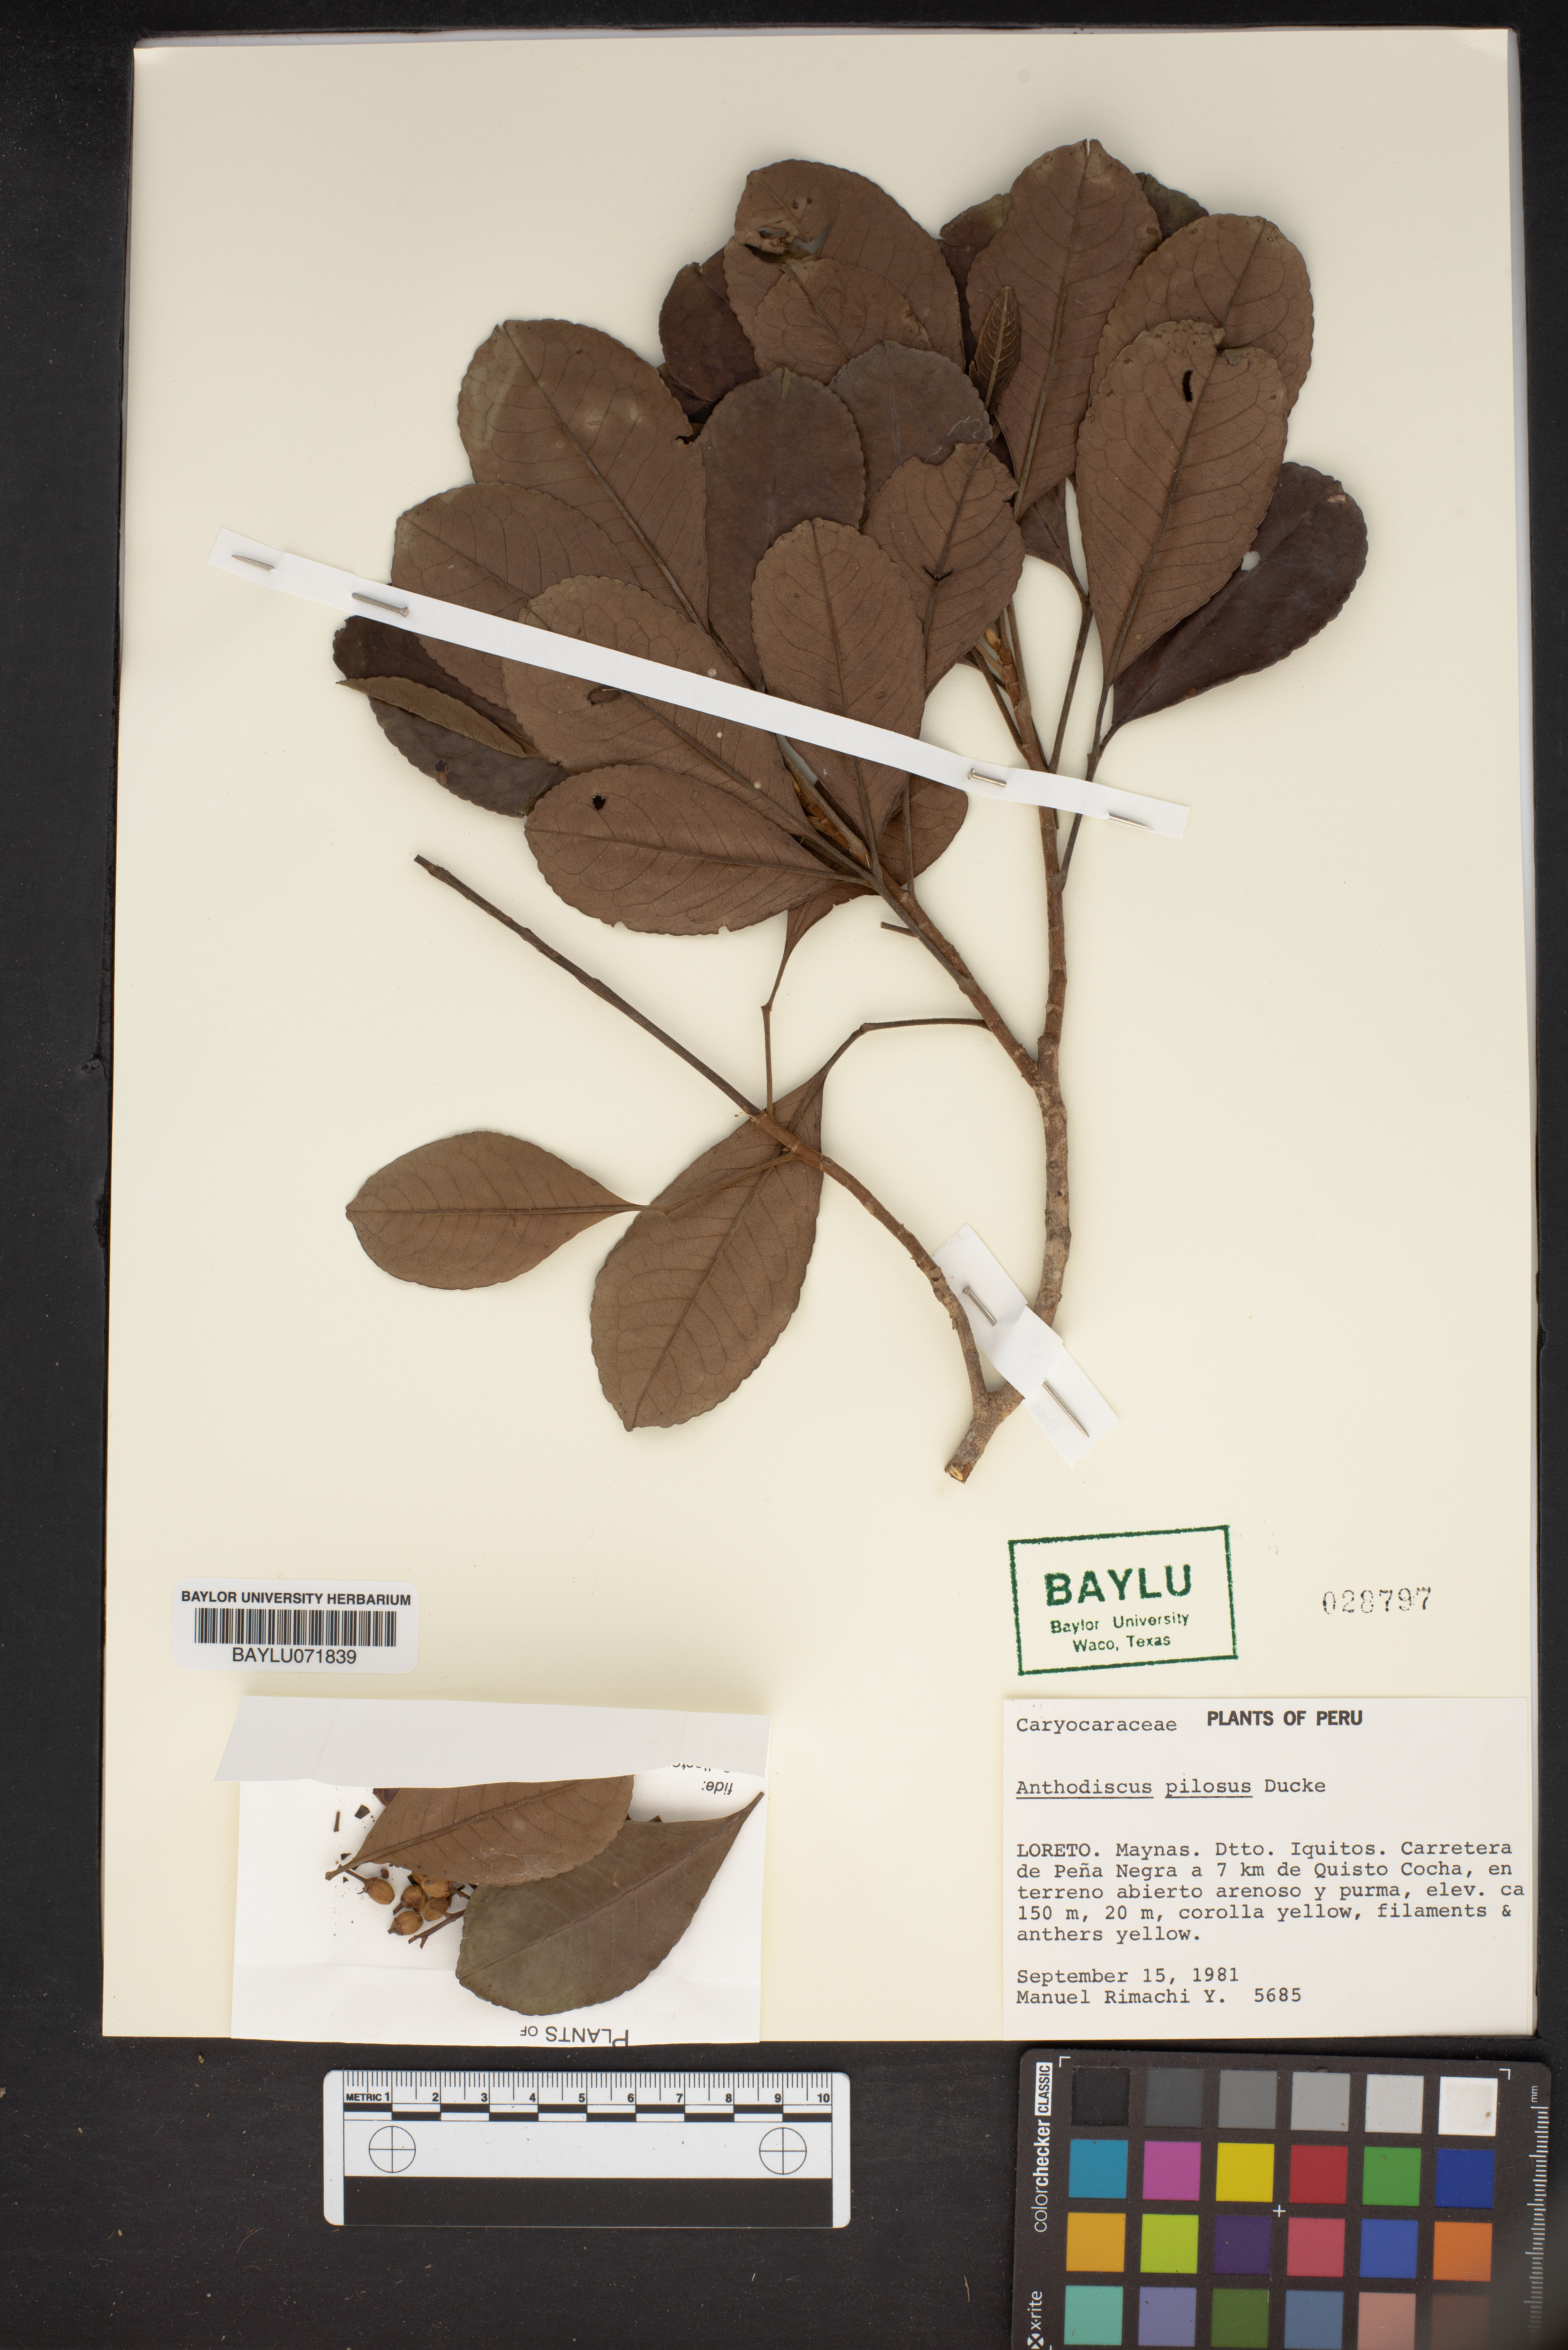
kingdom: Plantae
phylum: Tracheophyta
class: Magnoliopsida
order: Malpighiales
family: Caryocaraceae
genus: Anthodiscus
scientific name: Anthodiscus pilosus
